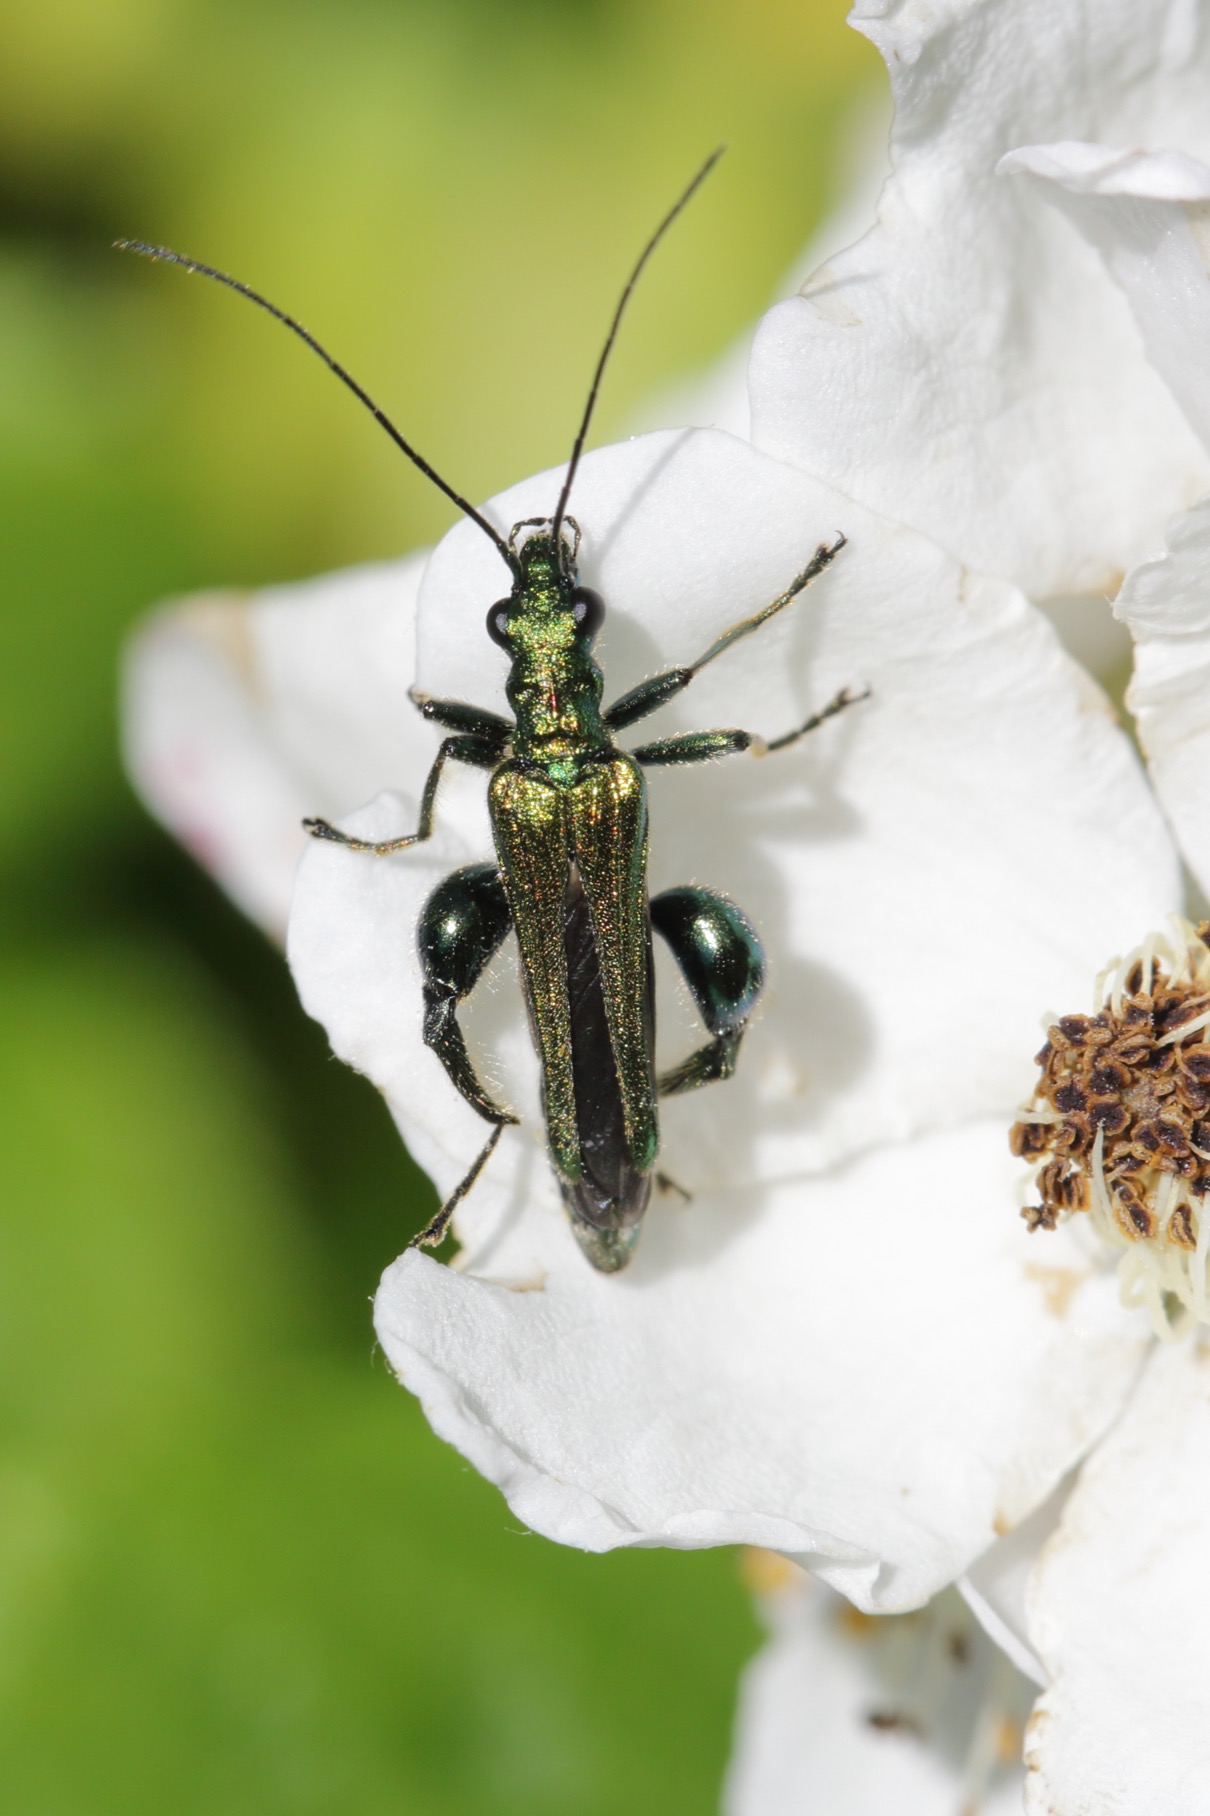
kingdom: Animalia
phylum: Arthropoda
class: Insecta
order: Coleoptera
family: Oedemeridae
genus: Oedemera
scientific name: Oedemera nobilis
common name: Tyklårssolbille
